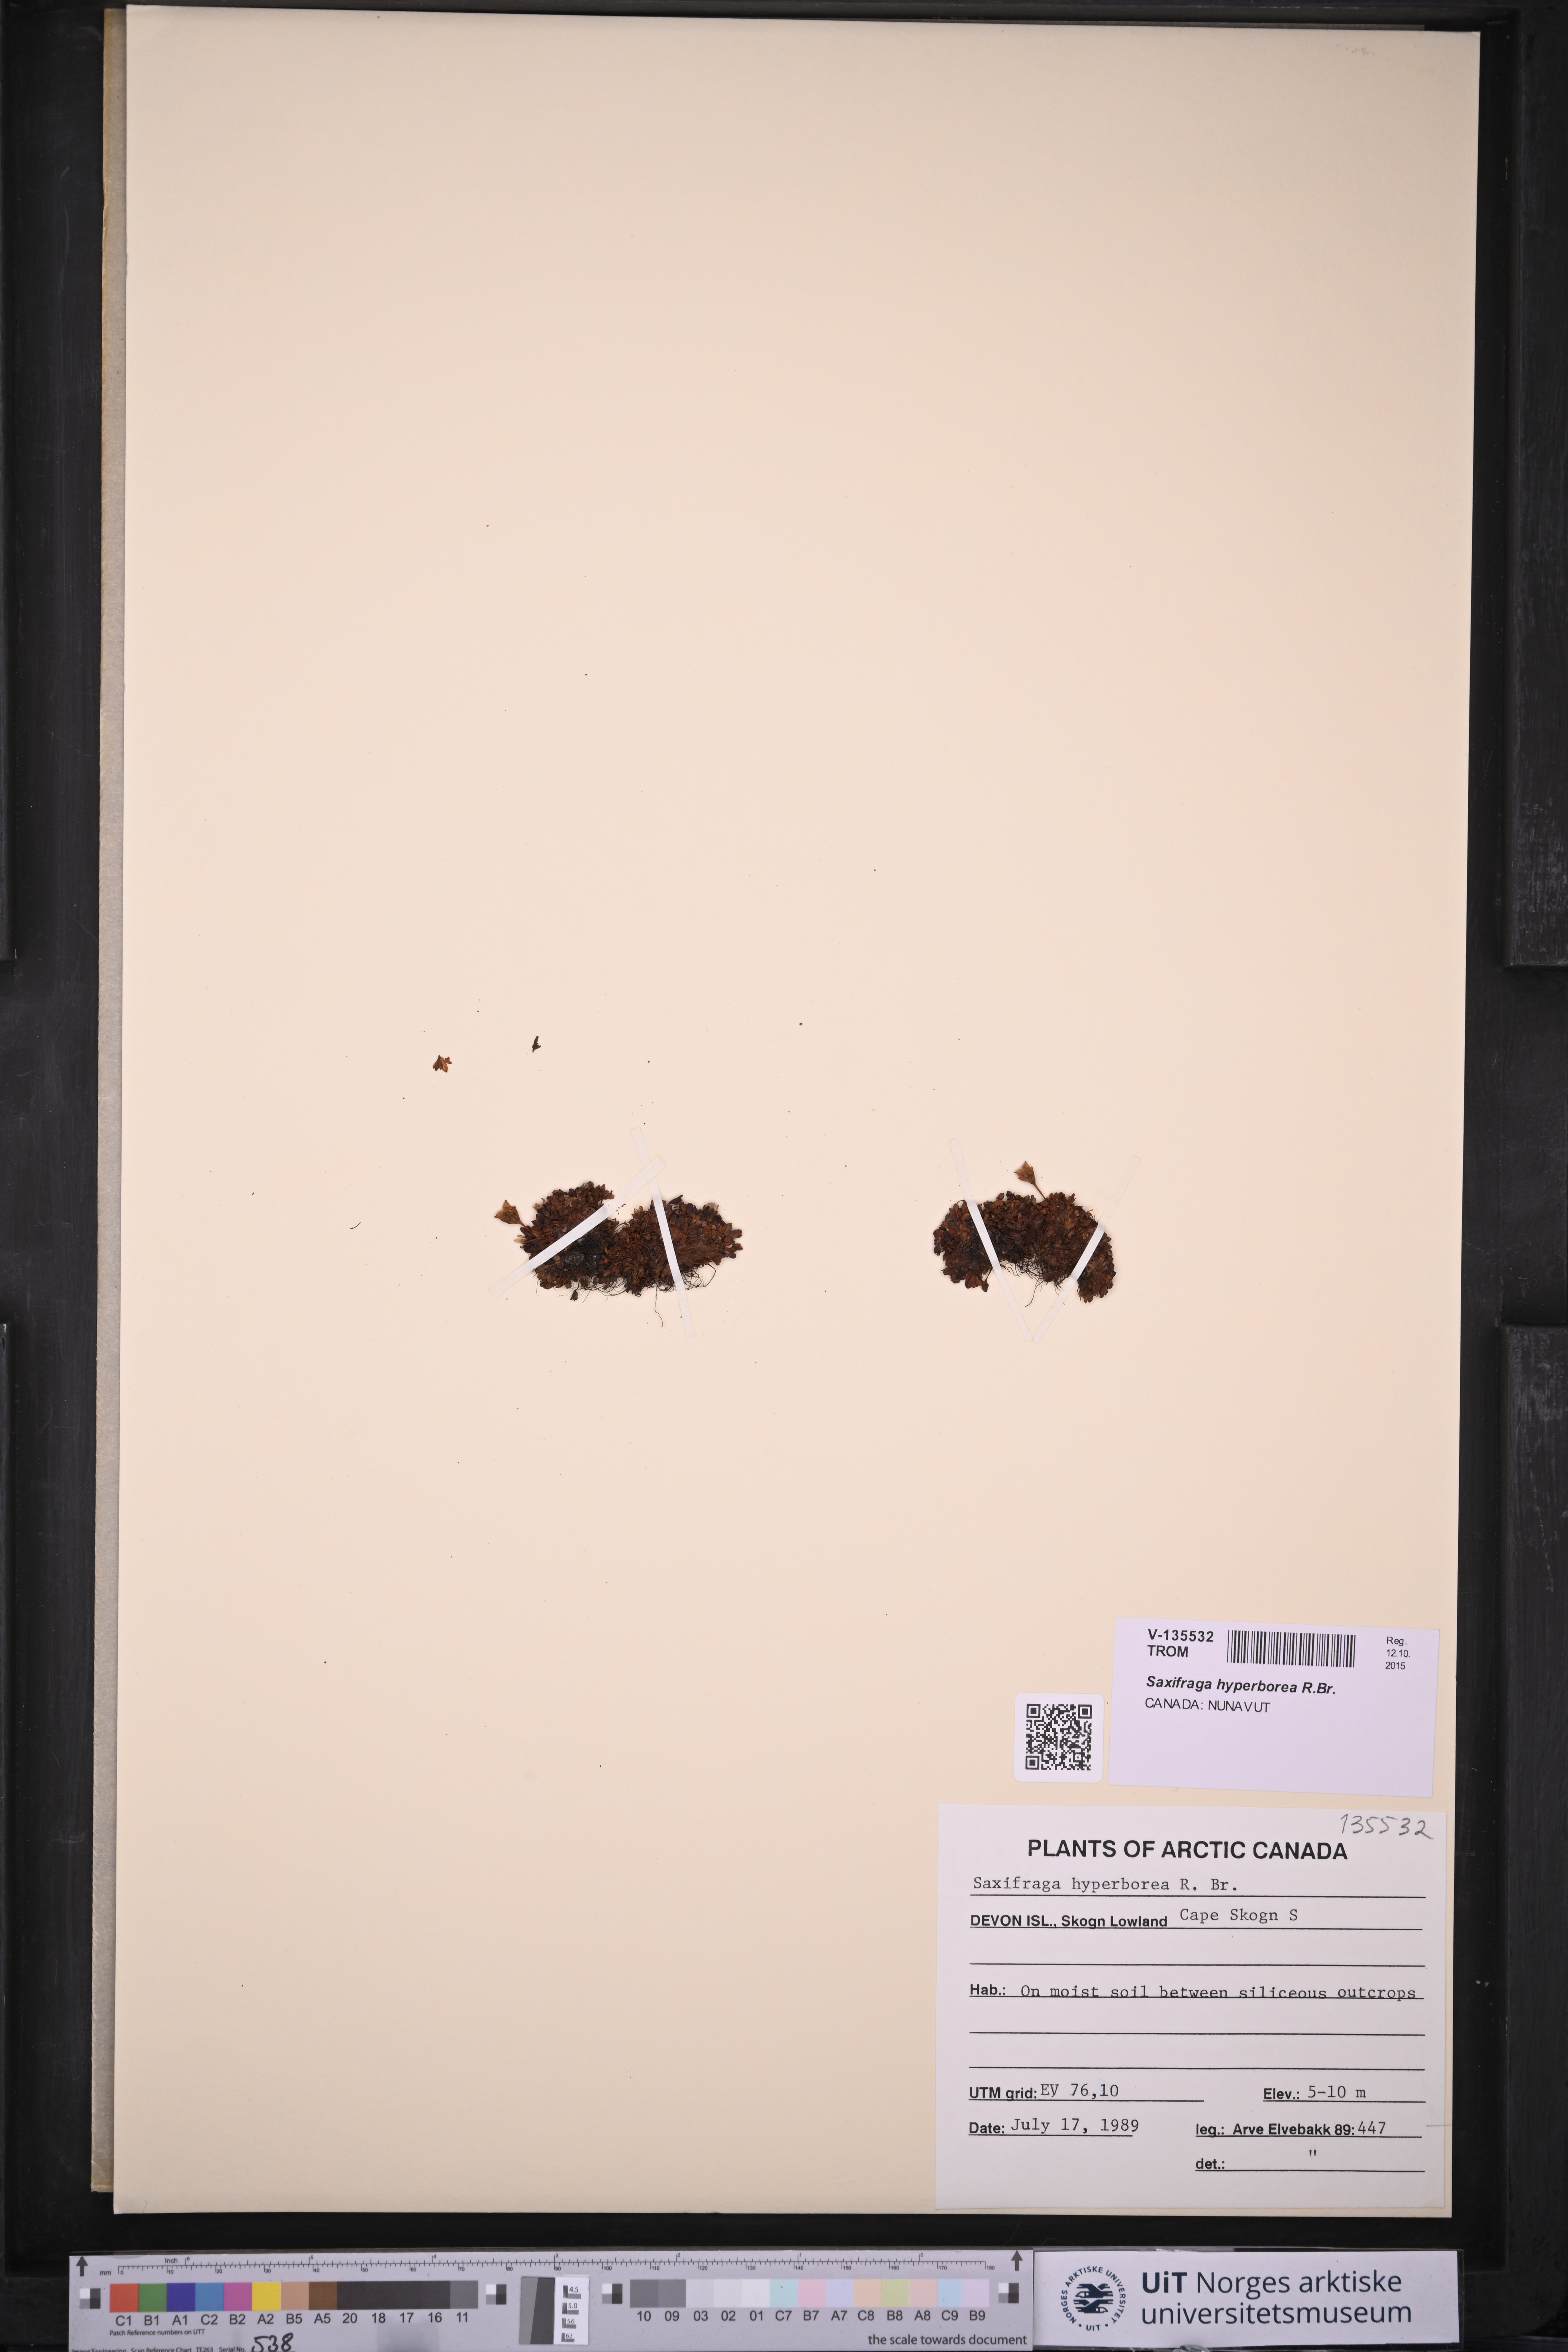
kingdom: Plantae
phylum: Tracheophyta
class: Magnoliopsida
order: Saxifragales
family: Saxifragaceae
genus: Saxifraga
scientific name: Saxifraga hyperborea
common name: Arctic saxifrage
